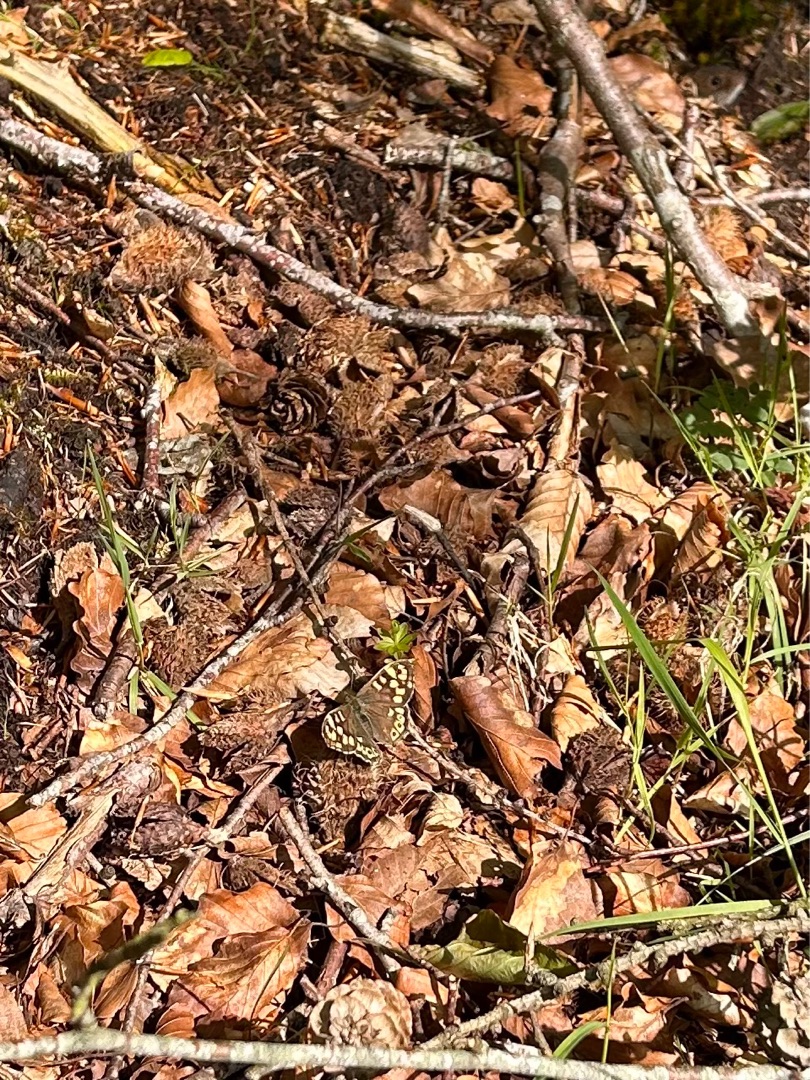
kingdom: Animalia
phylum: Arthropoda
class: Insecta
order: Lepidoptera
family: Nymphalidae
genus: Pararge
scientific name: Pararge aegeria
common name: Skovrandøje
